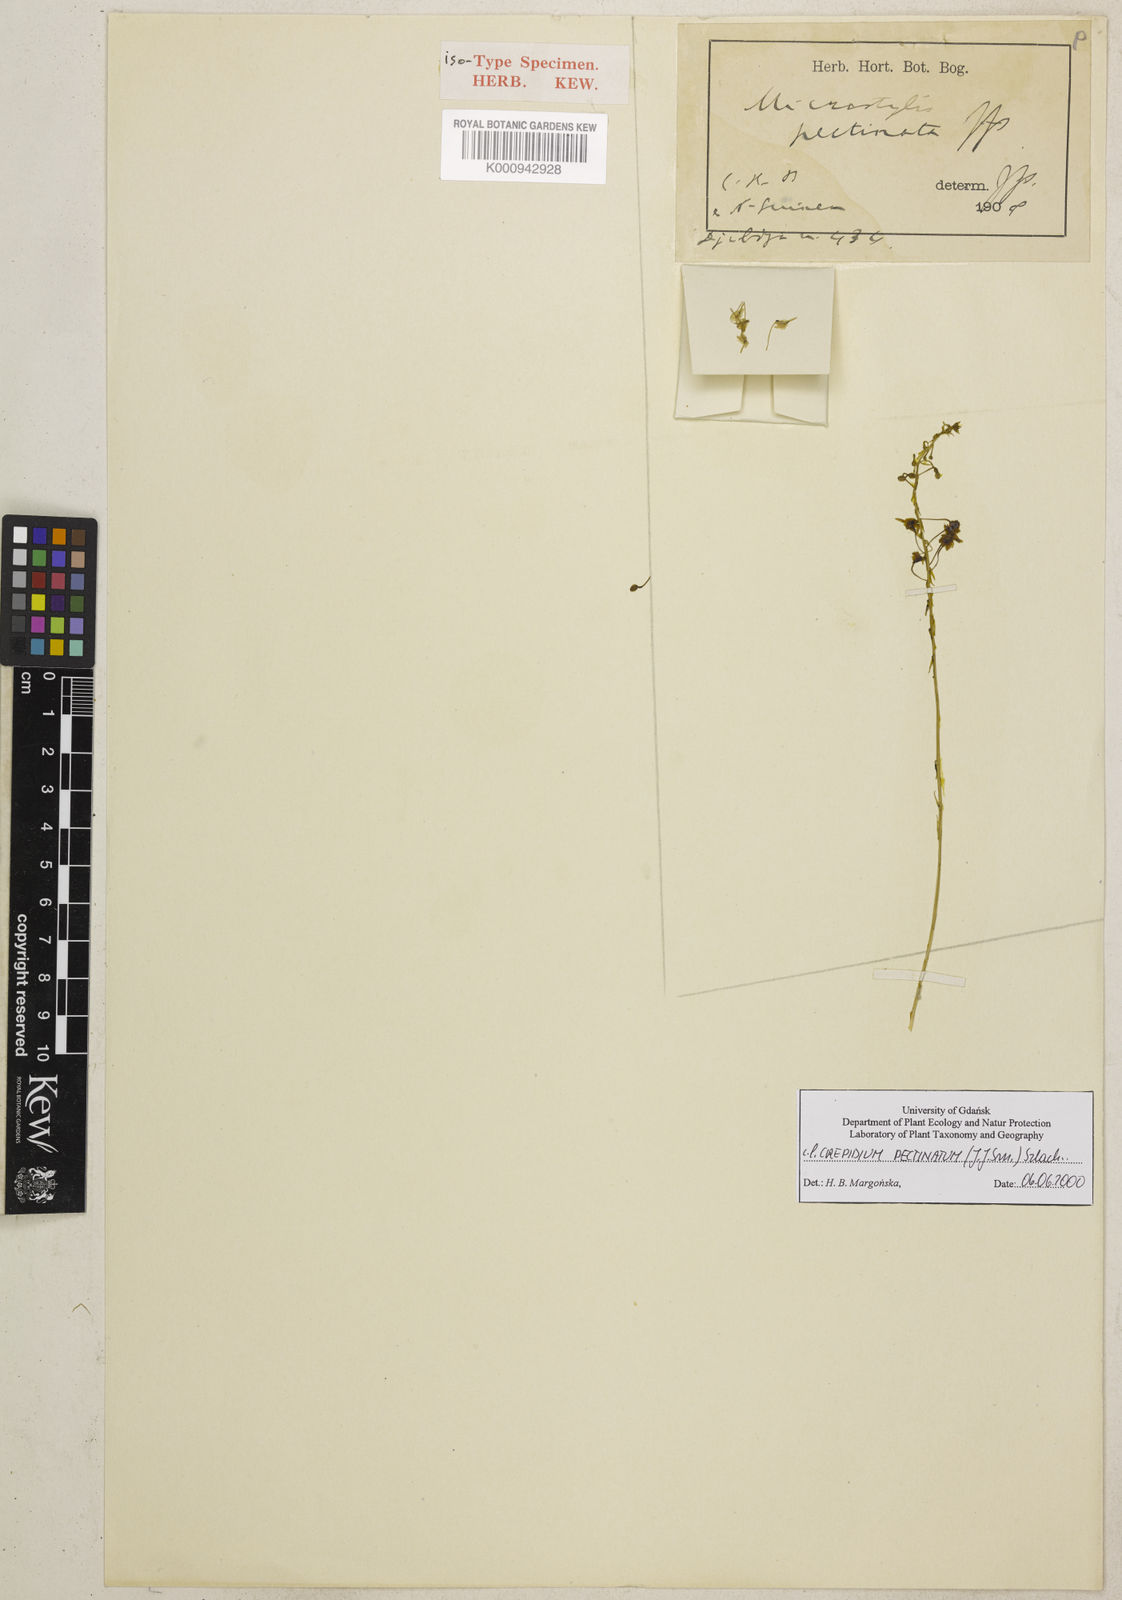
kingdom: Plantae
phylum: Tracheophyta
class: Liliopsida
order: Asparagales
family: Orchidaceae
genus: Crepidium
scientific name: Crepidium pectinatum
